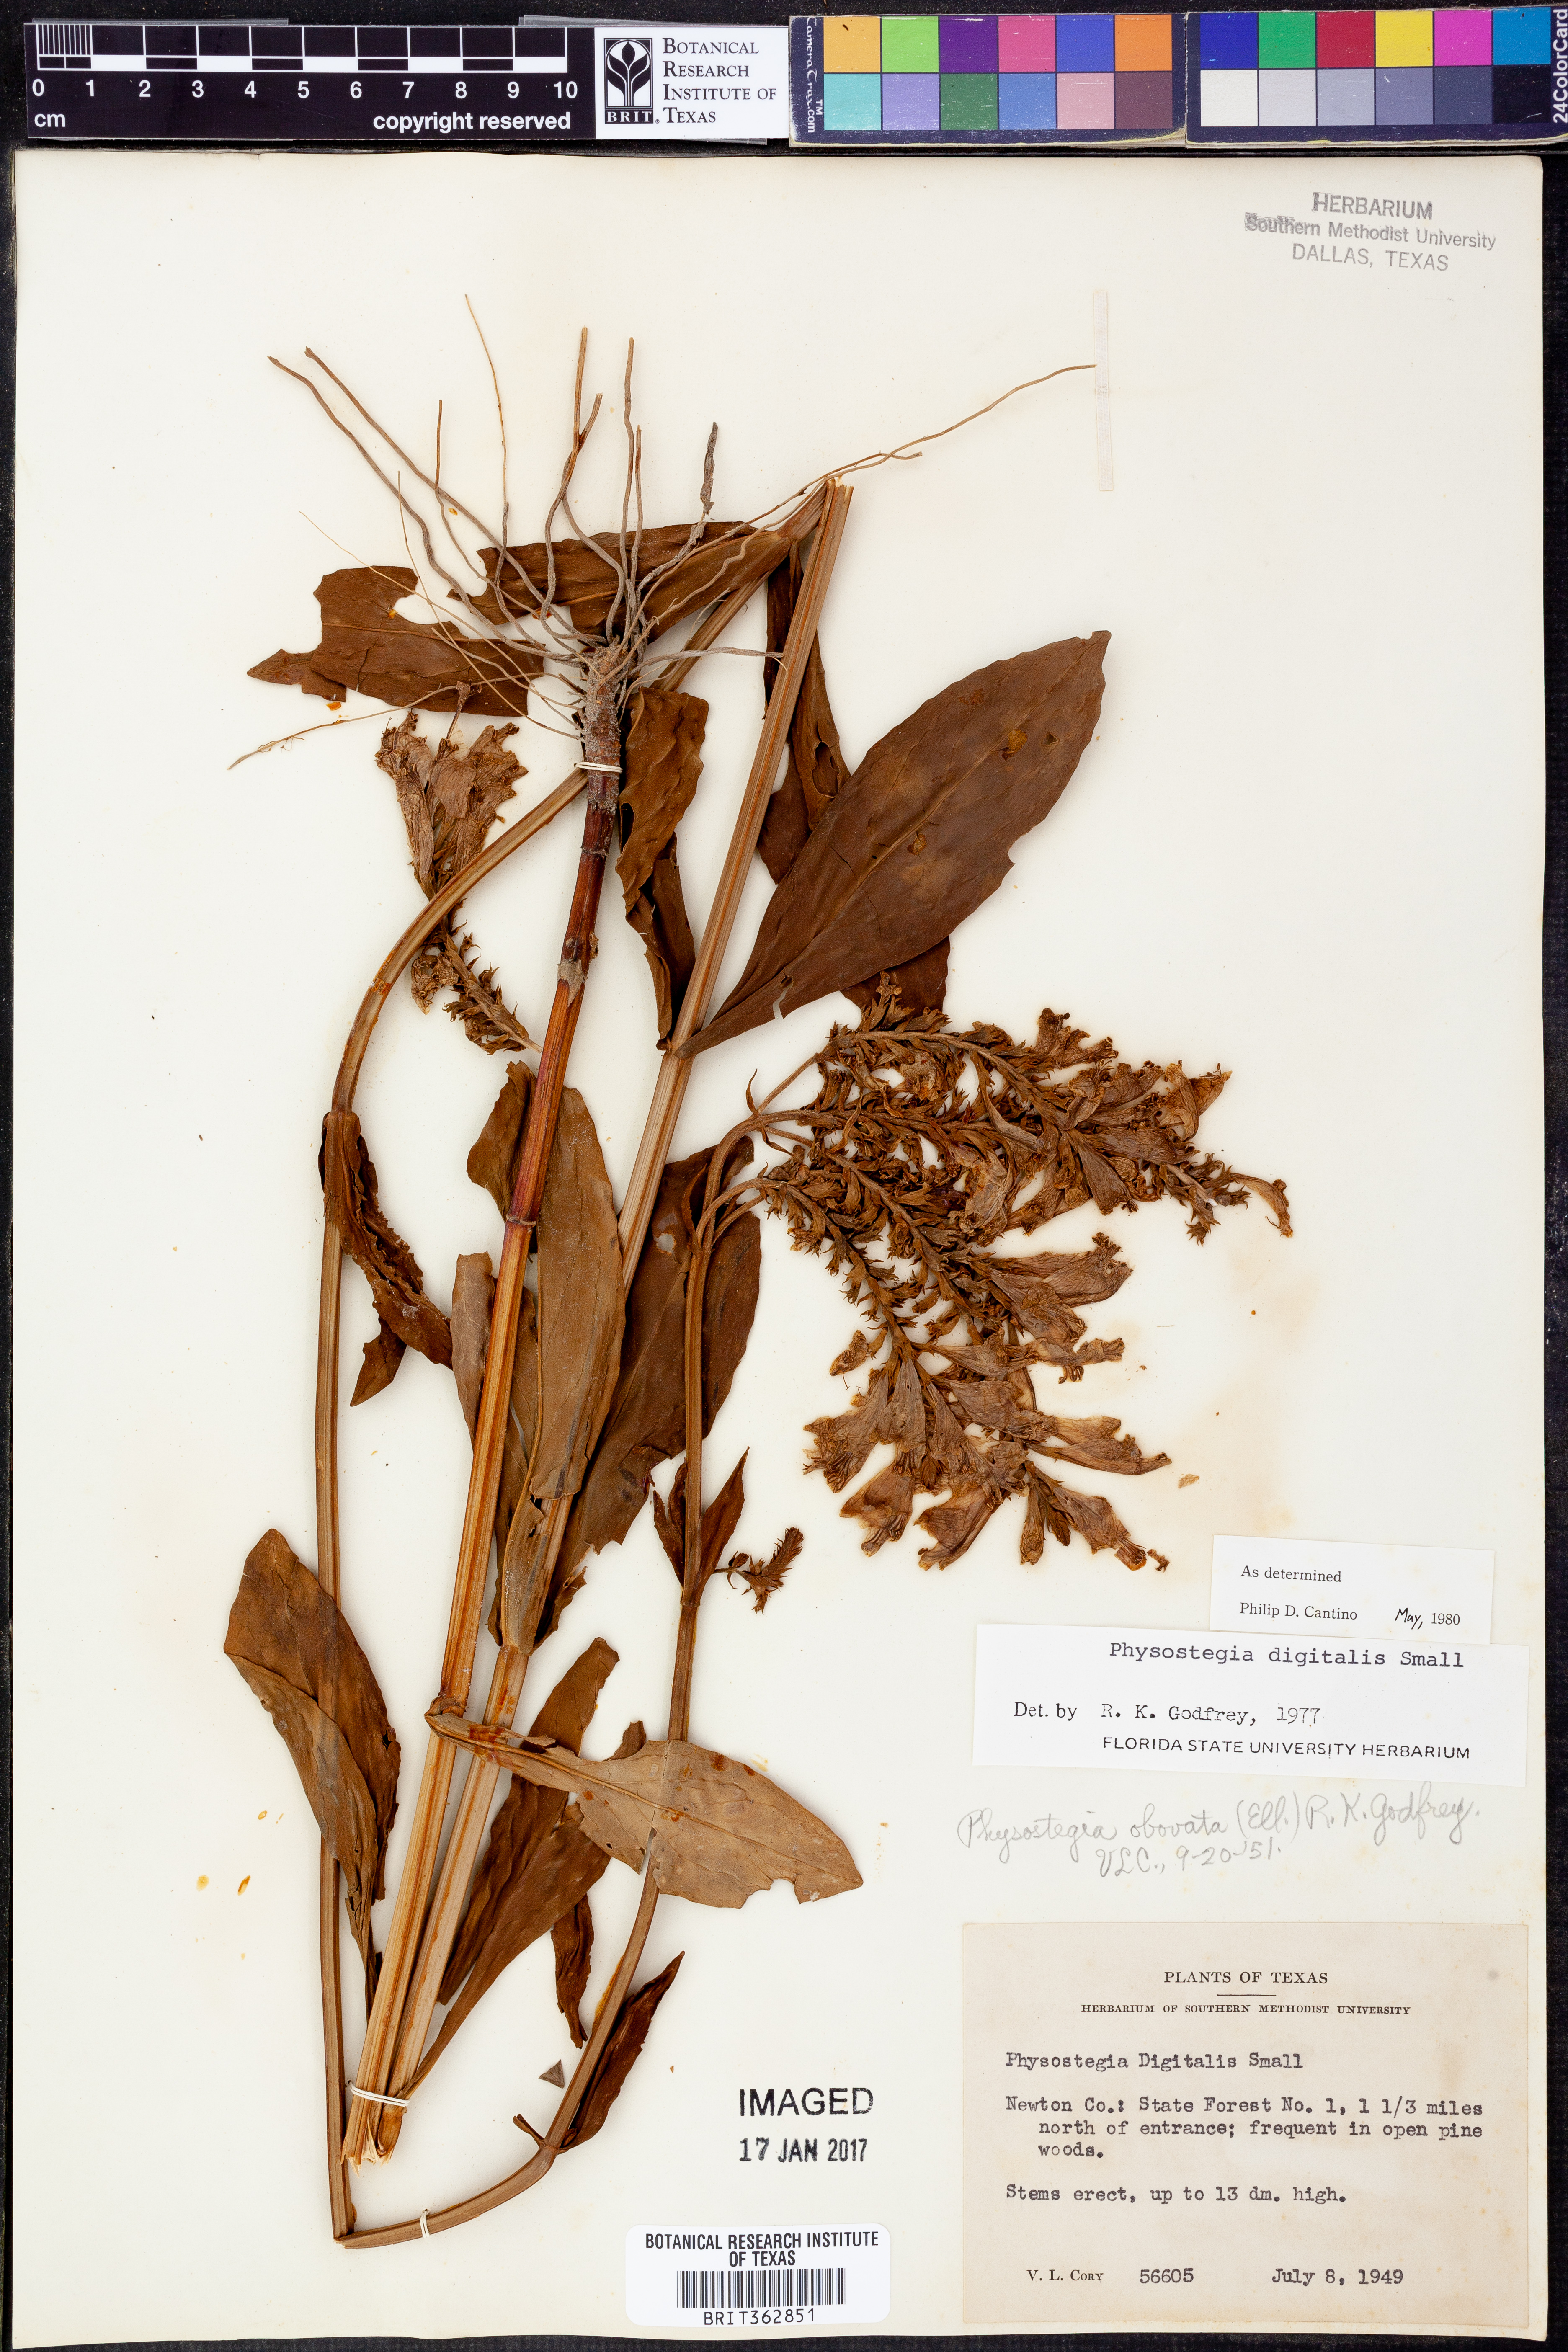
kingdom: Plantae
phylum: Tracheophyta
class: Magnoliopsida
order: Lamiales
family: Lamiaceae
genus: Physostegia
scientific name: Physostegia digitalis
